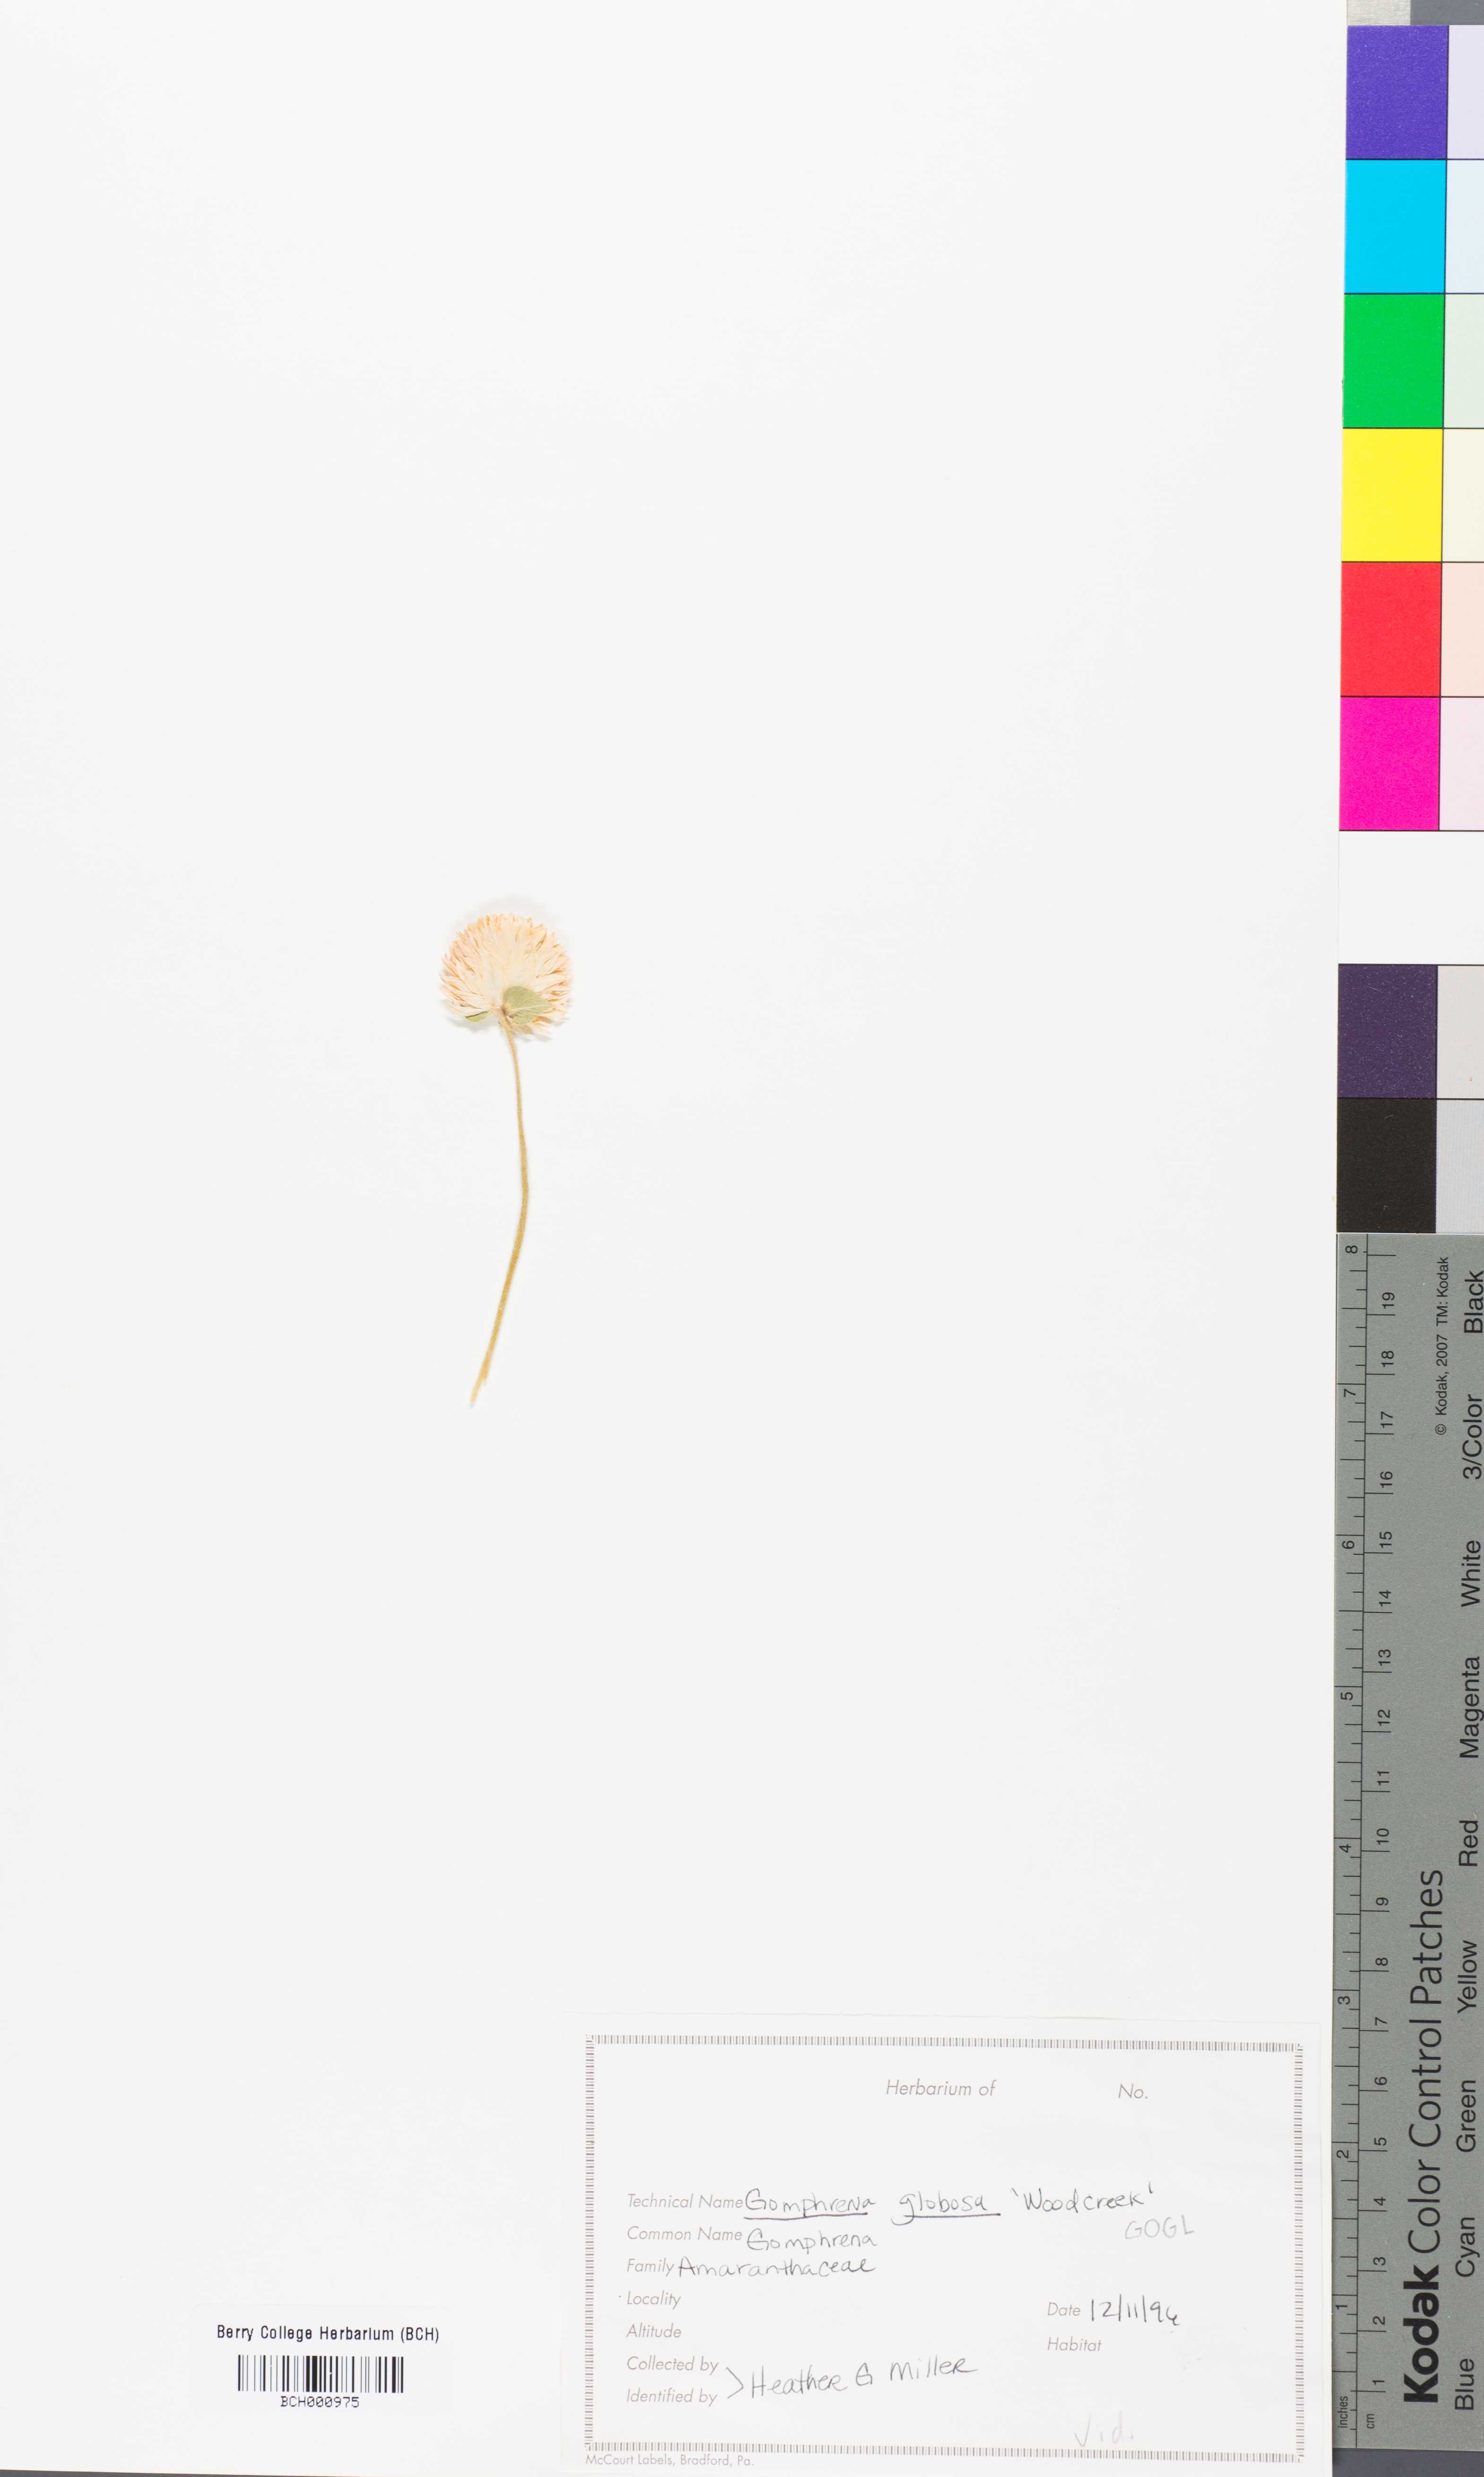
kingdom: Plantae
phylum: Tracheophyta
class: Magnoliopsida
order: Caryophyllales
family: Amaranthaceae
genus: Gomphrena
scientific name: Gomphrena globosa
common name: Common globe amaranth
